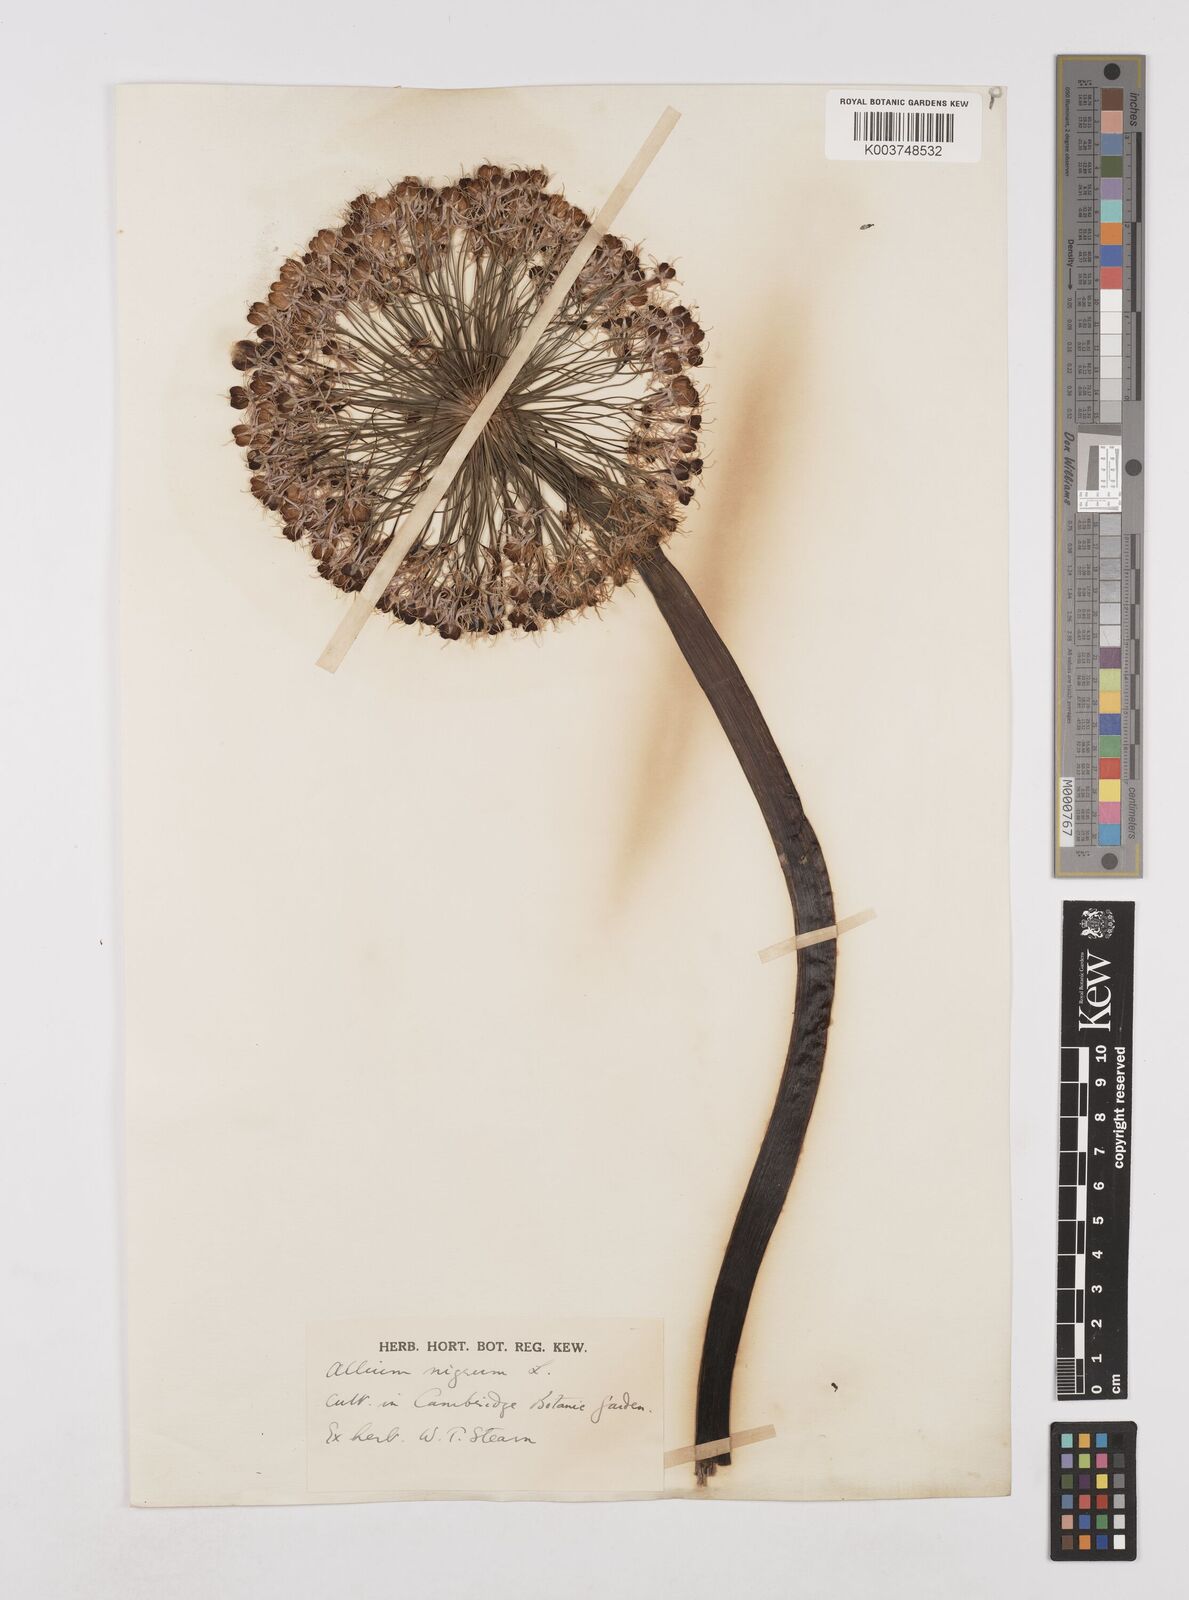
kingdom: Plantae
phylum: Tracheophyta
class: Liliopsida
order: Asparagales
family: Amaryllidaceae
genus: Allium
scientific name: Allium nigrum
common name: Black garlic
